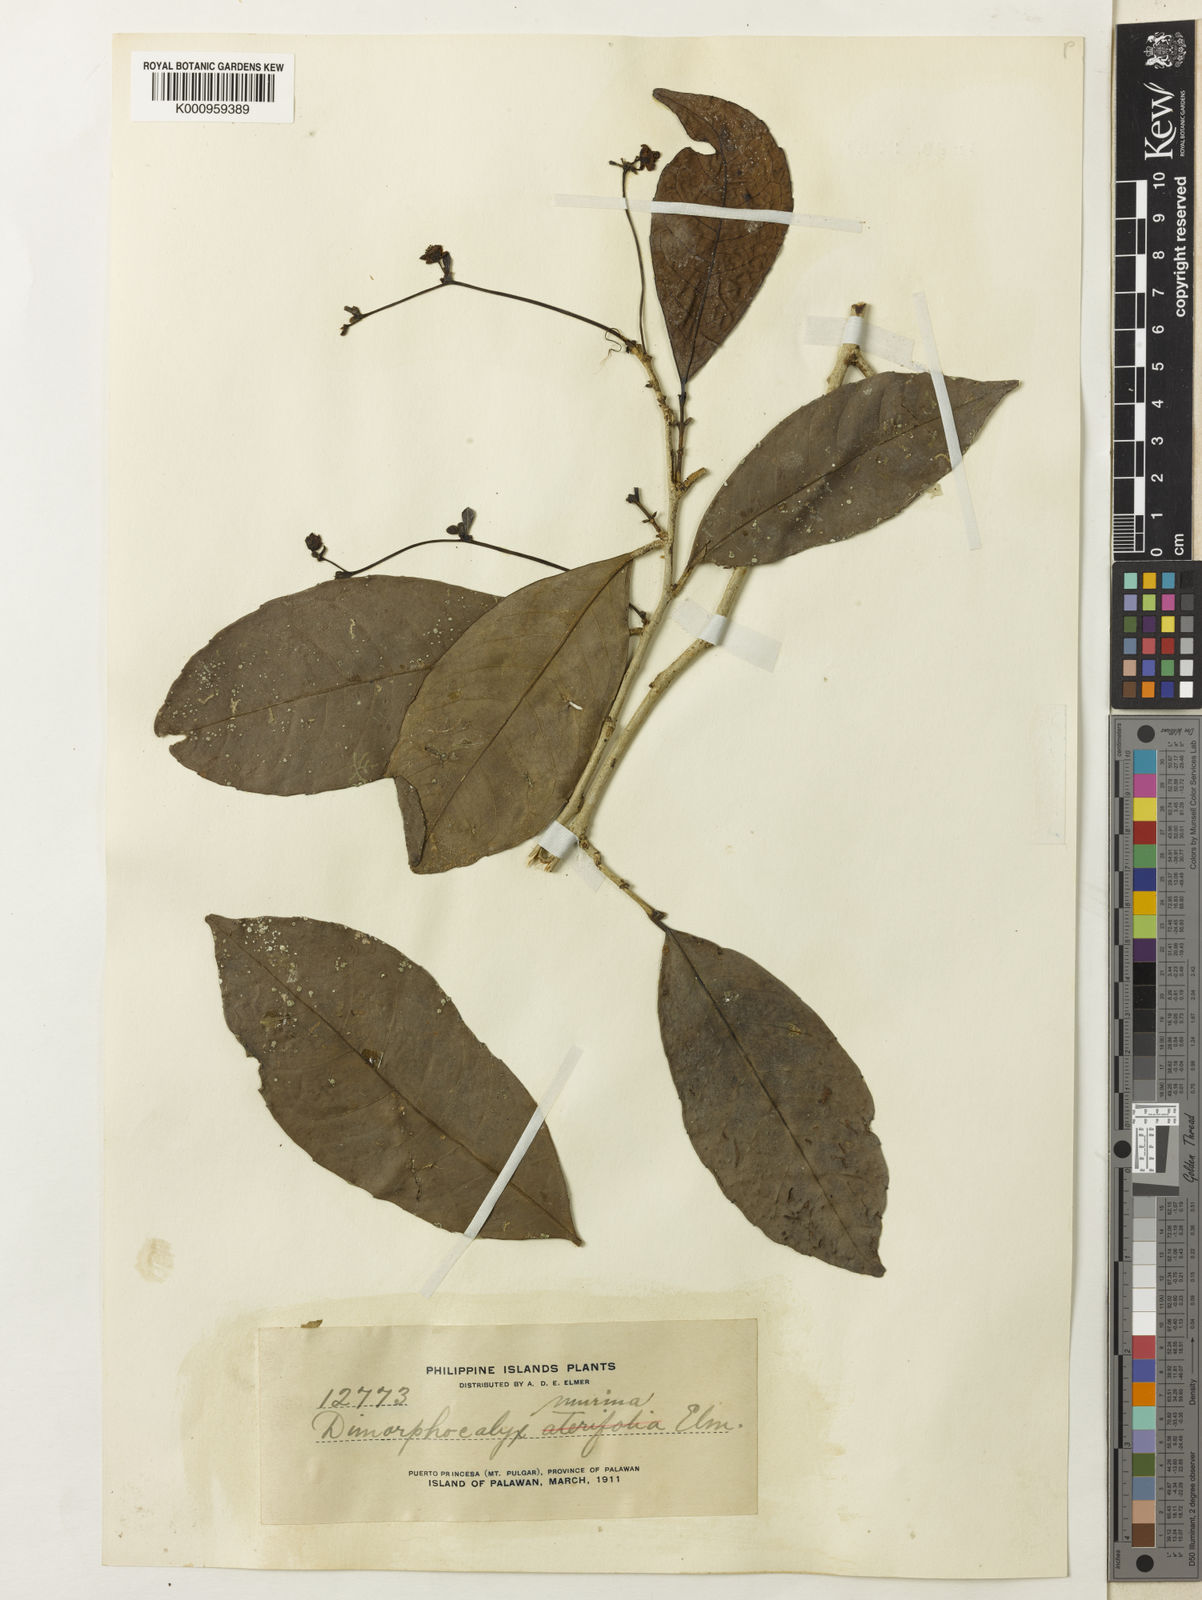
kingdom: Plantae
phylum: Tracheophyta
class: Magnoliopsida
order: Malpighiales
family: Euphorbiaceae
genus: Tritaxis
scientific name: Tritaxis denticulata
